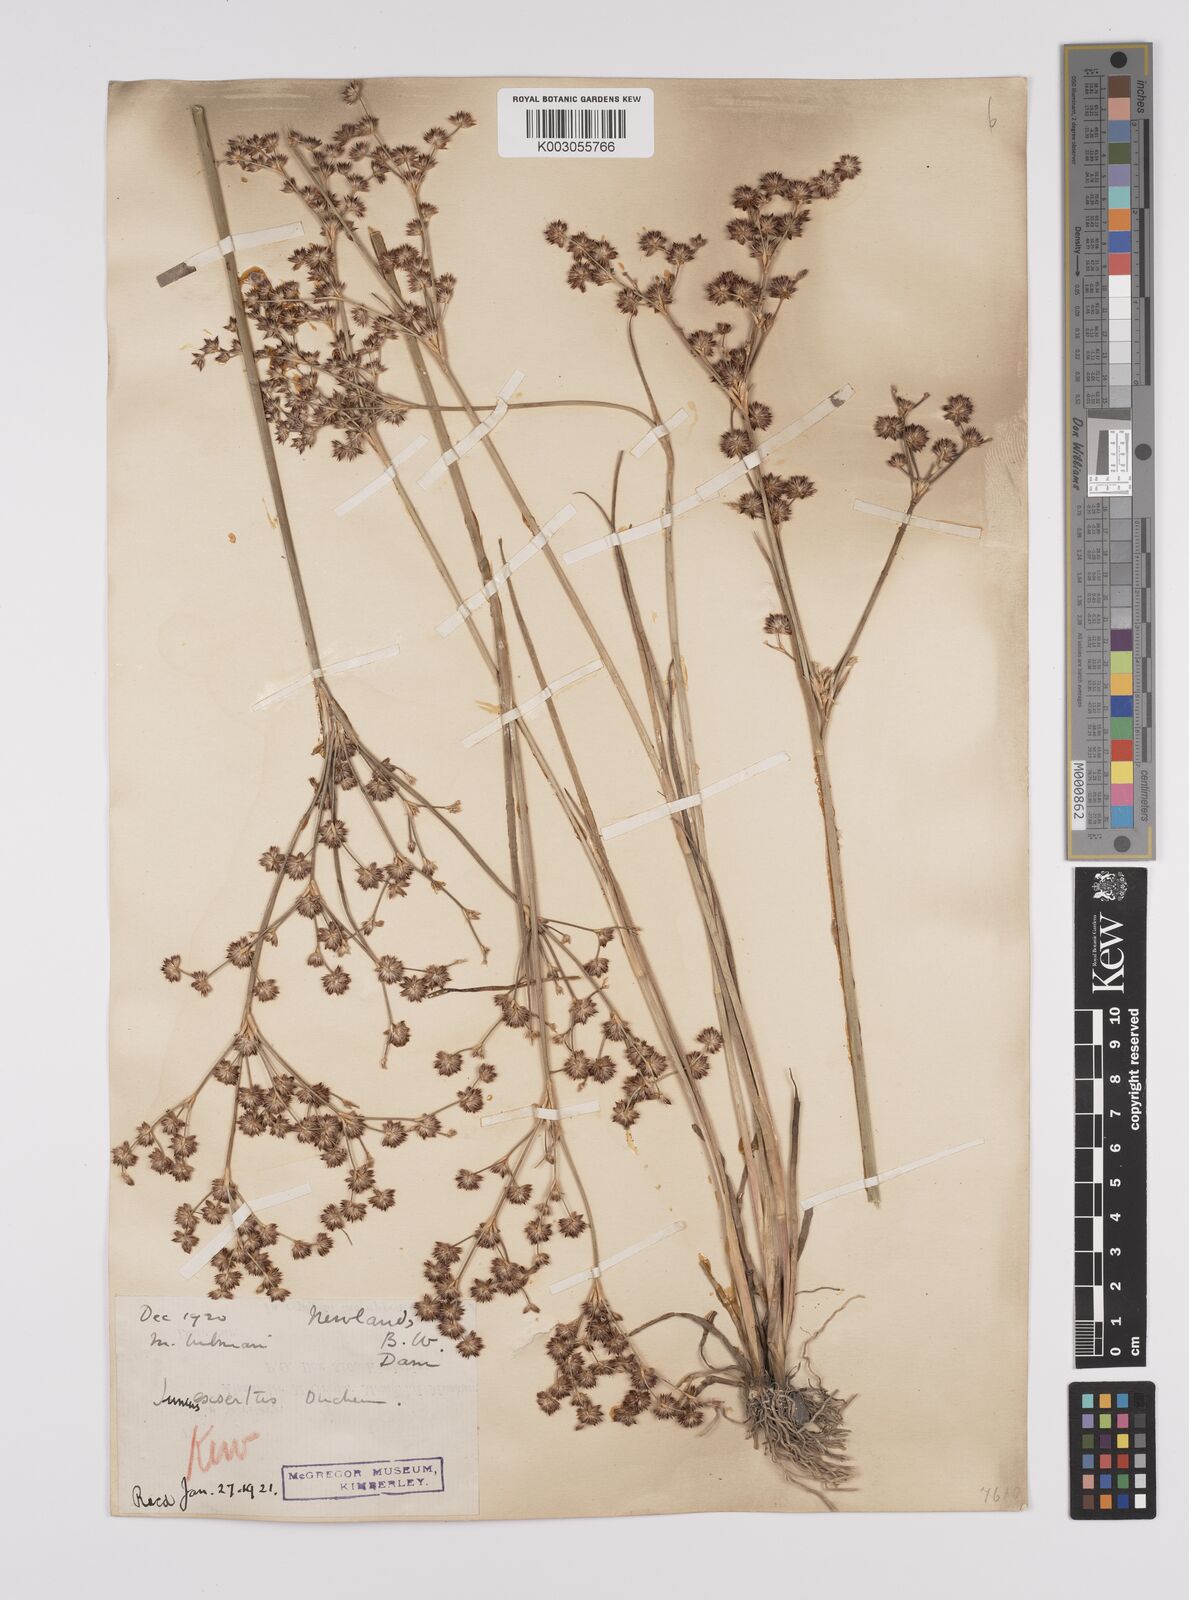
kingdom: Plantae
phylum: Tracheophyta
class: Liliopsida
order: Poales
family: Juncaceae
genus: Juncus
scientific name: Juncus exsertus
